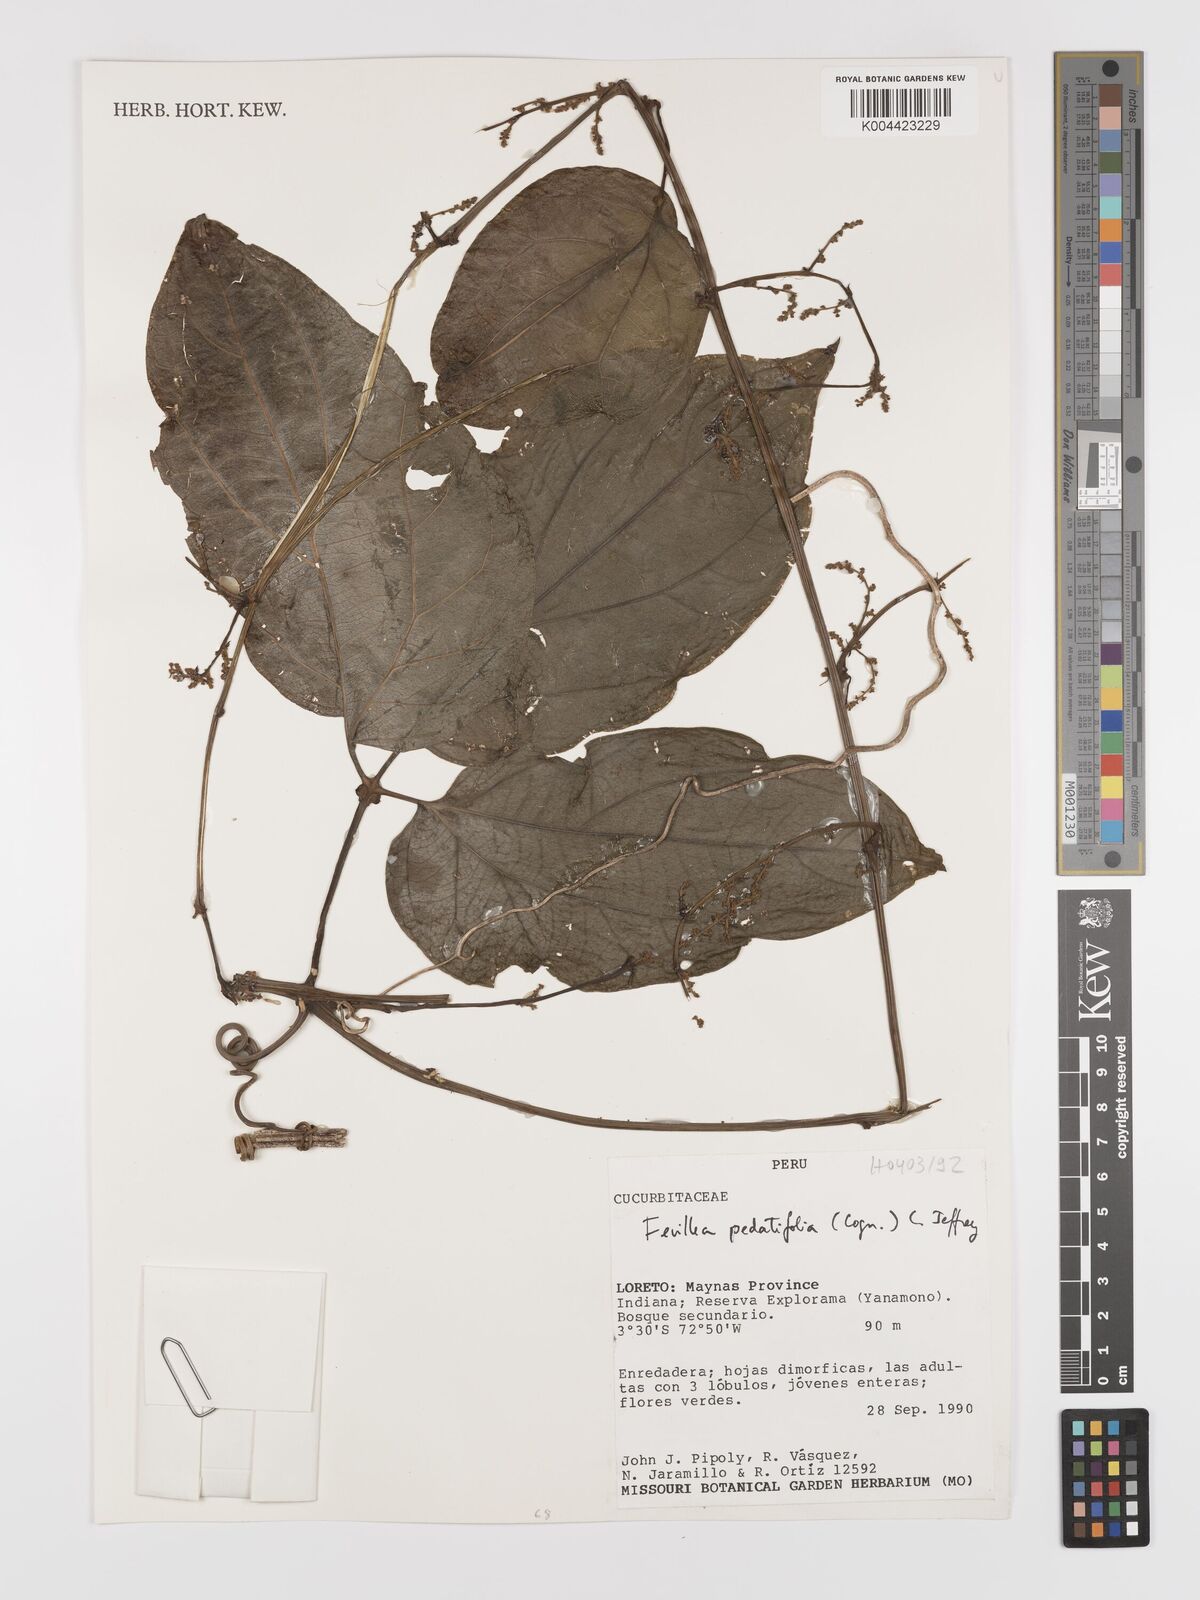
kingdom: Plantae
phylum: Tracheophyta
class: Magnoliopsida
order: Cucurbitales
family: Cucurbitaceae
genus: Fevillea
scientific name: Fevillea pedatifolia
